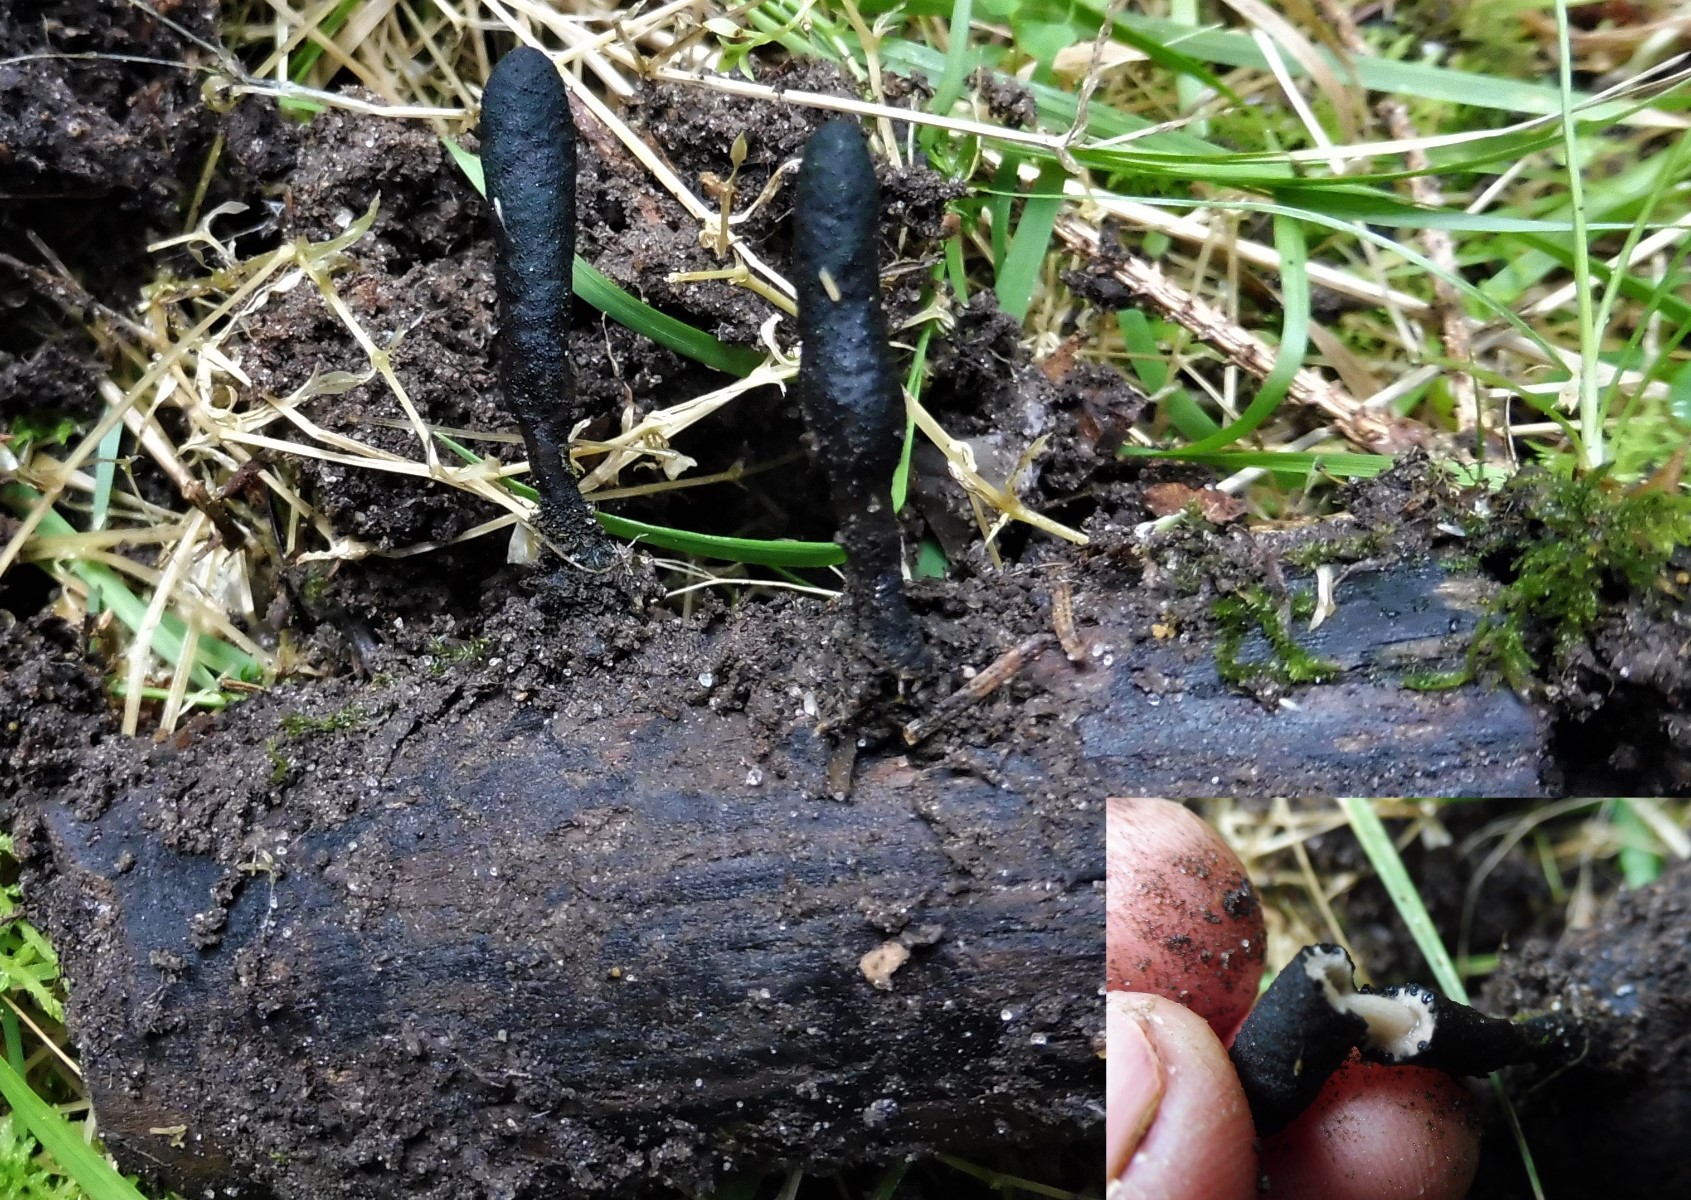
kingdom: Fungi
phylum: Ascomycota
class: Sordariomycetes
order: Xylariales
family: Xylariaceae
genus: Xylaria
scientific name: Xylaria longipes
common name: slank stødsvamp
